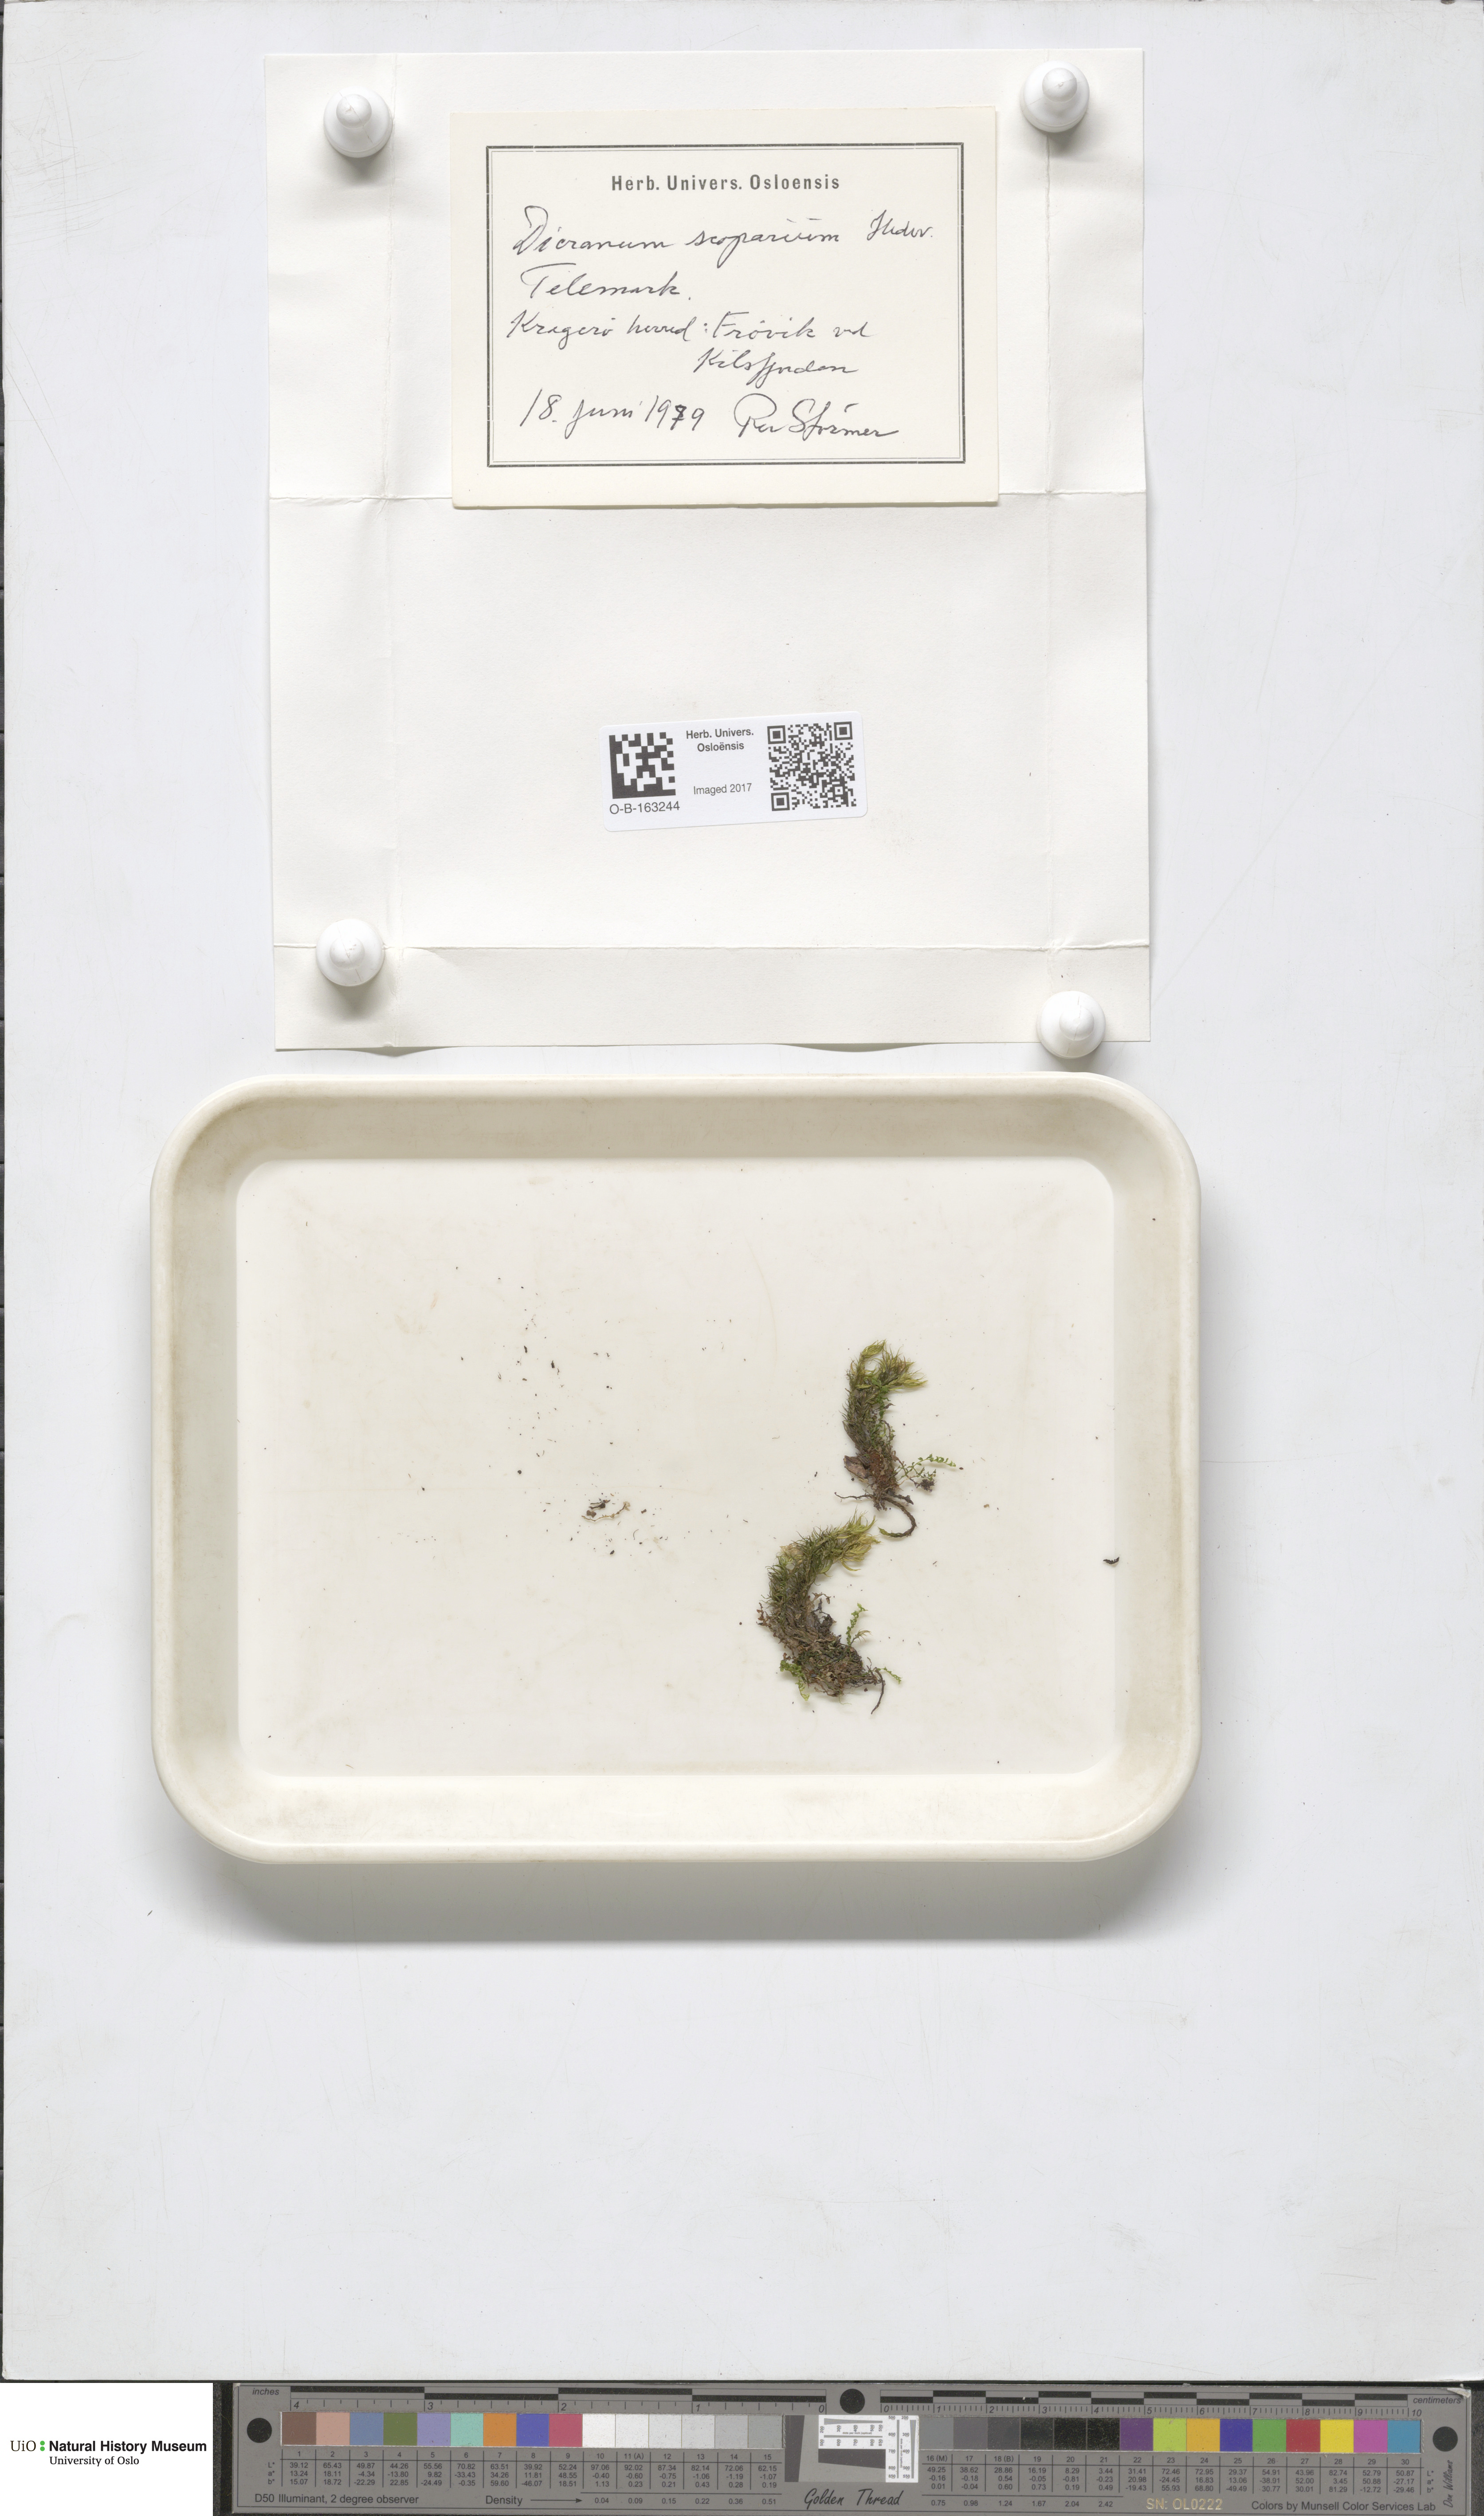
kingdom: Plantae
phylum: Bryophyta
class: Bryopsida
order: Dicranales
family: Dicranaceae
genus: Dicranum
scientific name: Dicranum scoparium
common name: Broom fork-moss
